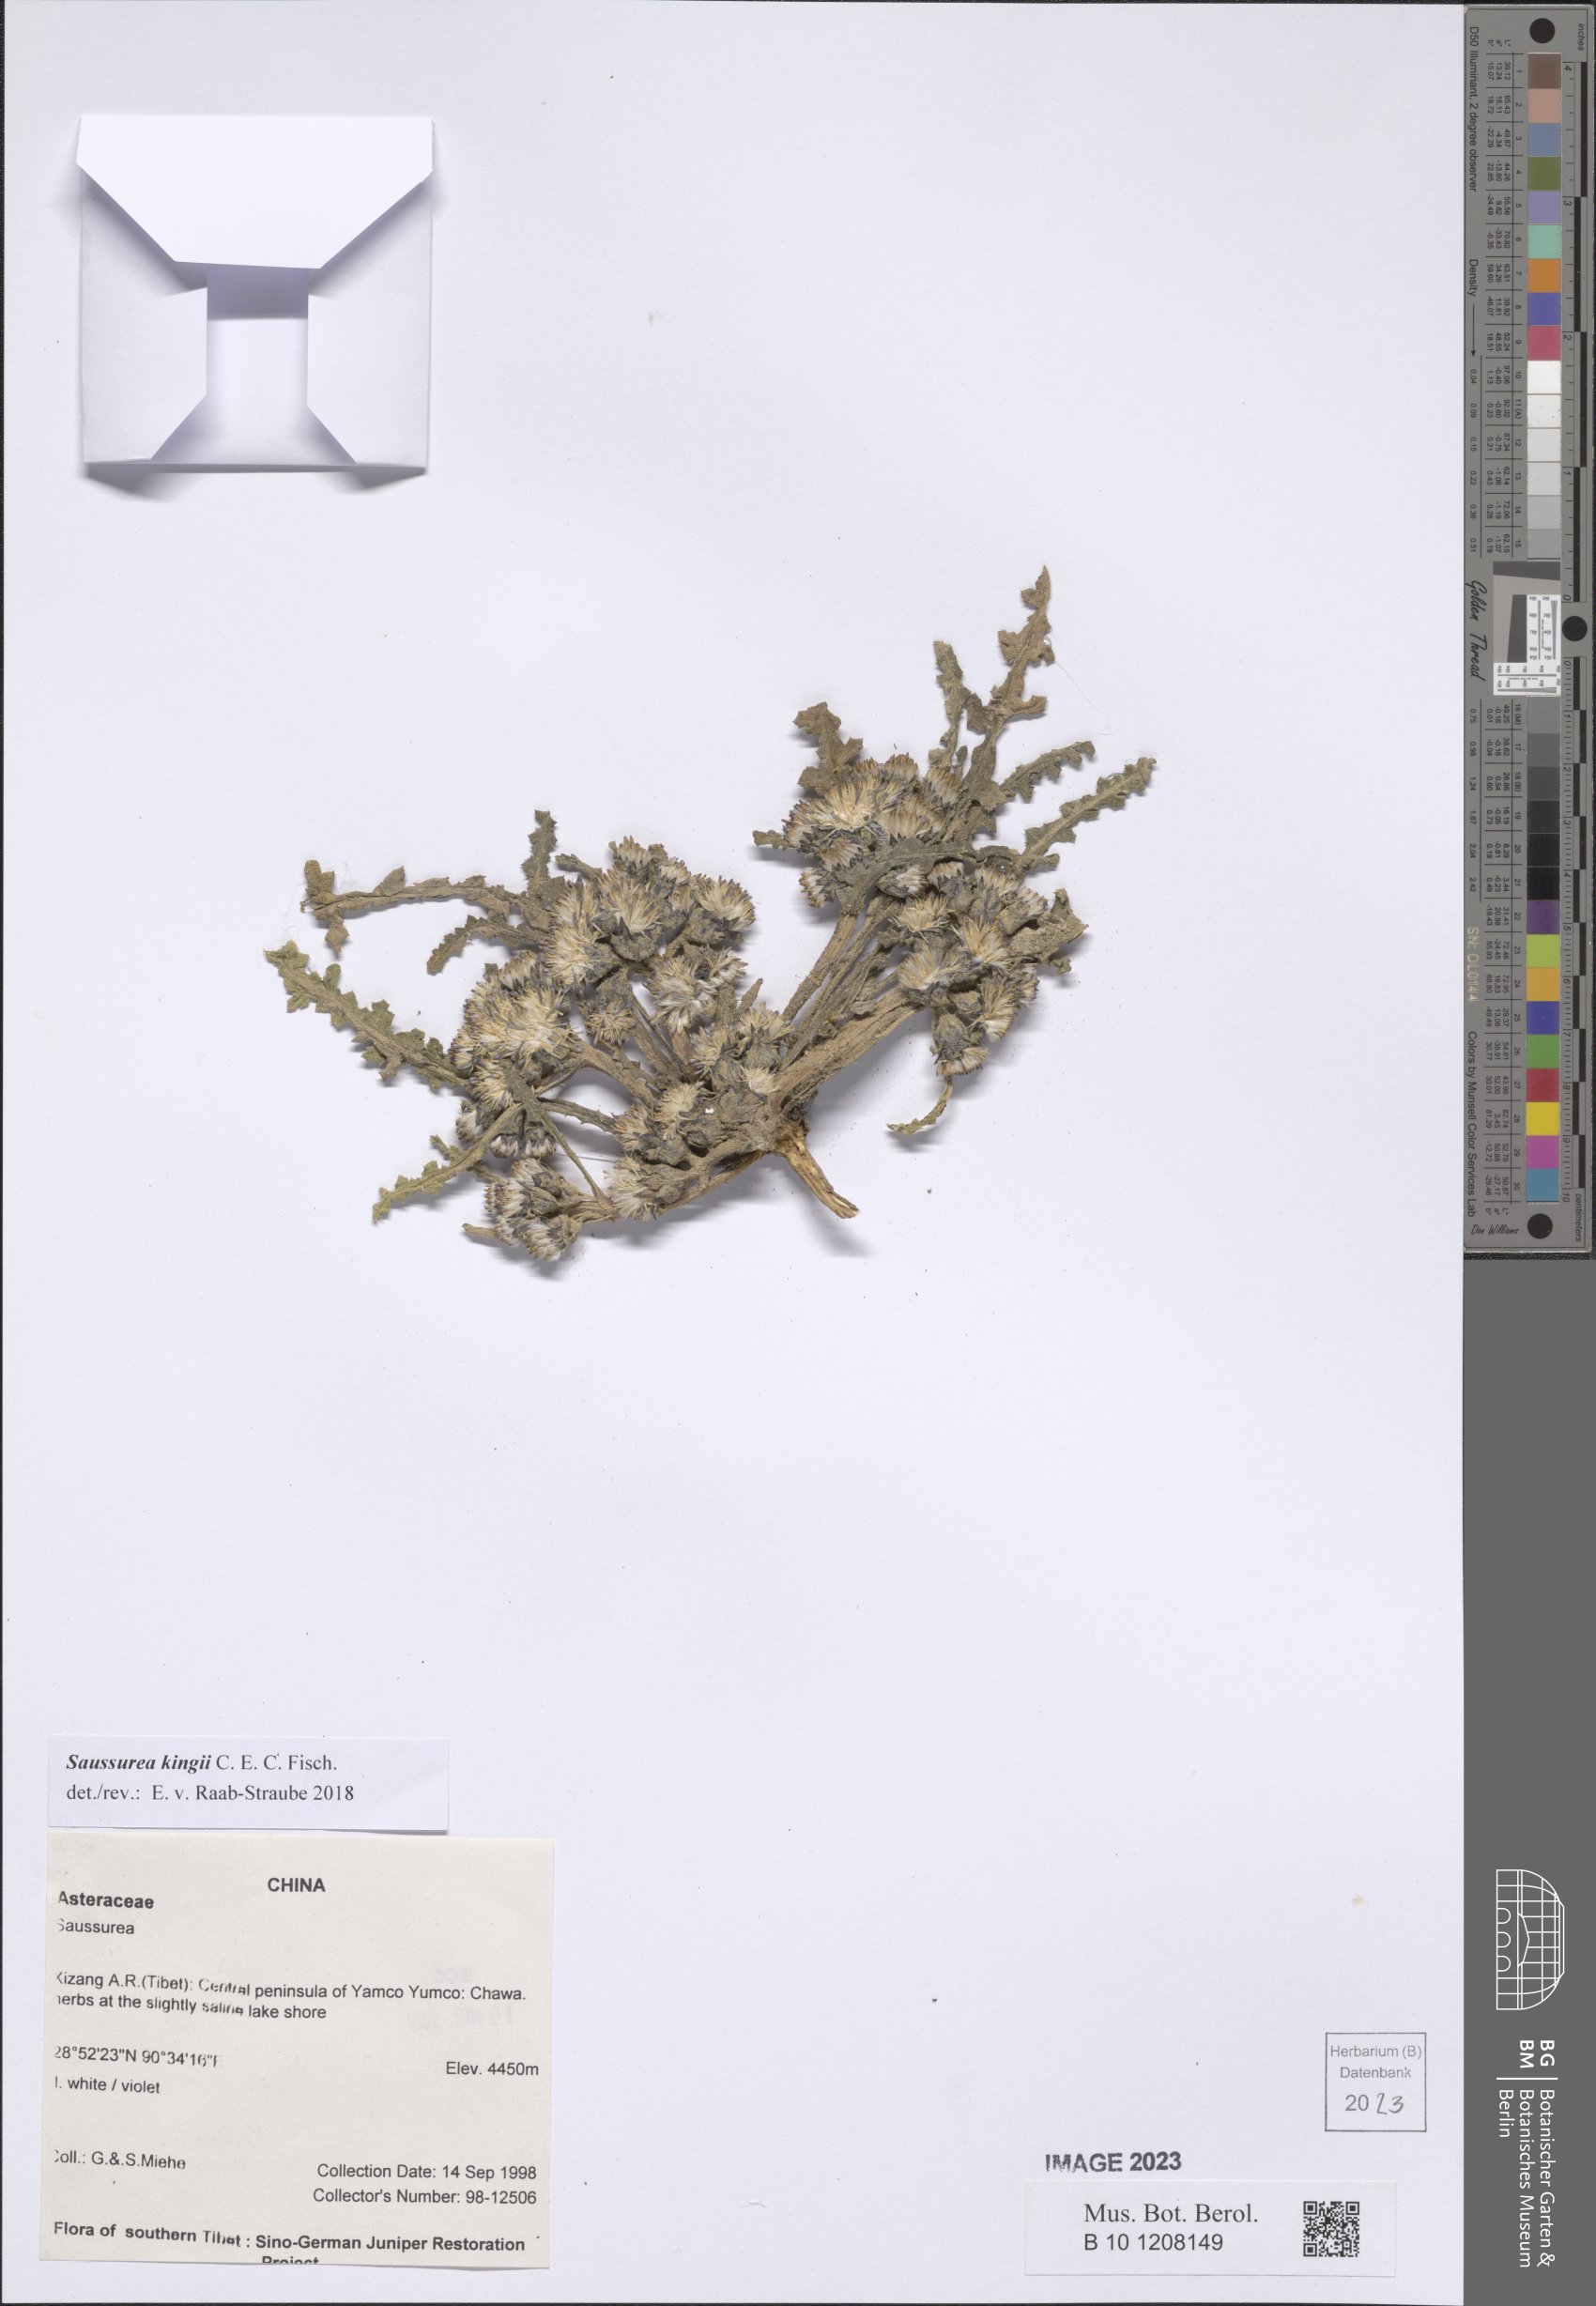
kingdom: Plantae
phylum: Tracheophyta
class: Magnoliopsida
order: Asterales
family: Asteraceae
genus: Saussurea
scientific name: Saussurea kingii
